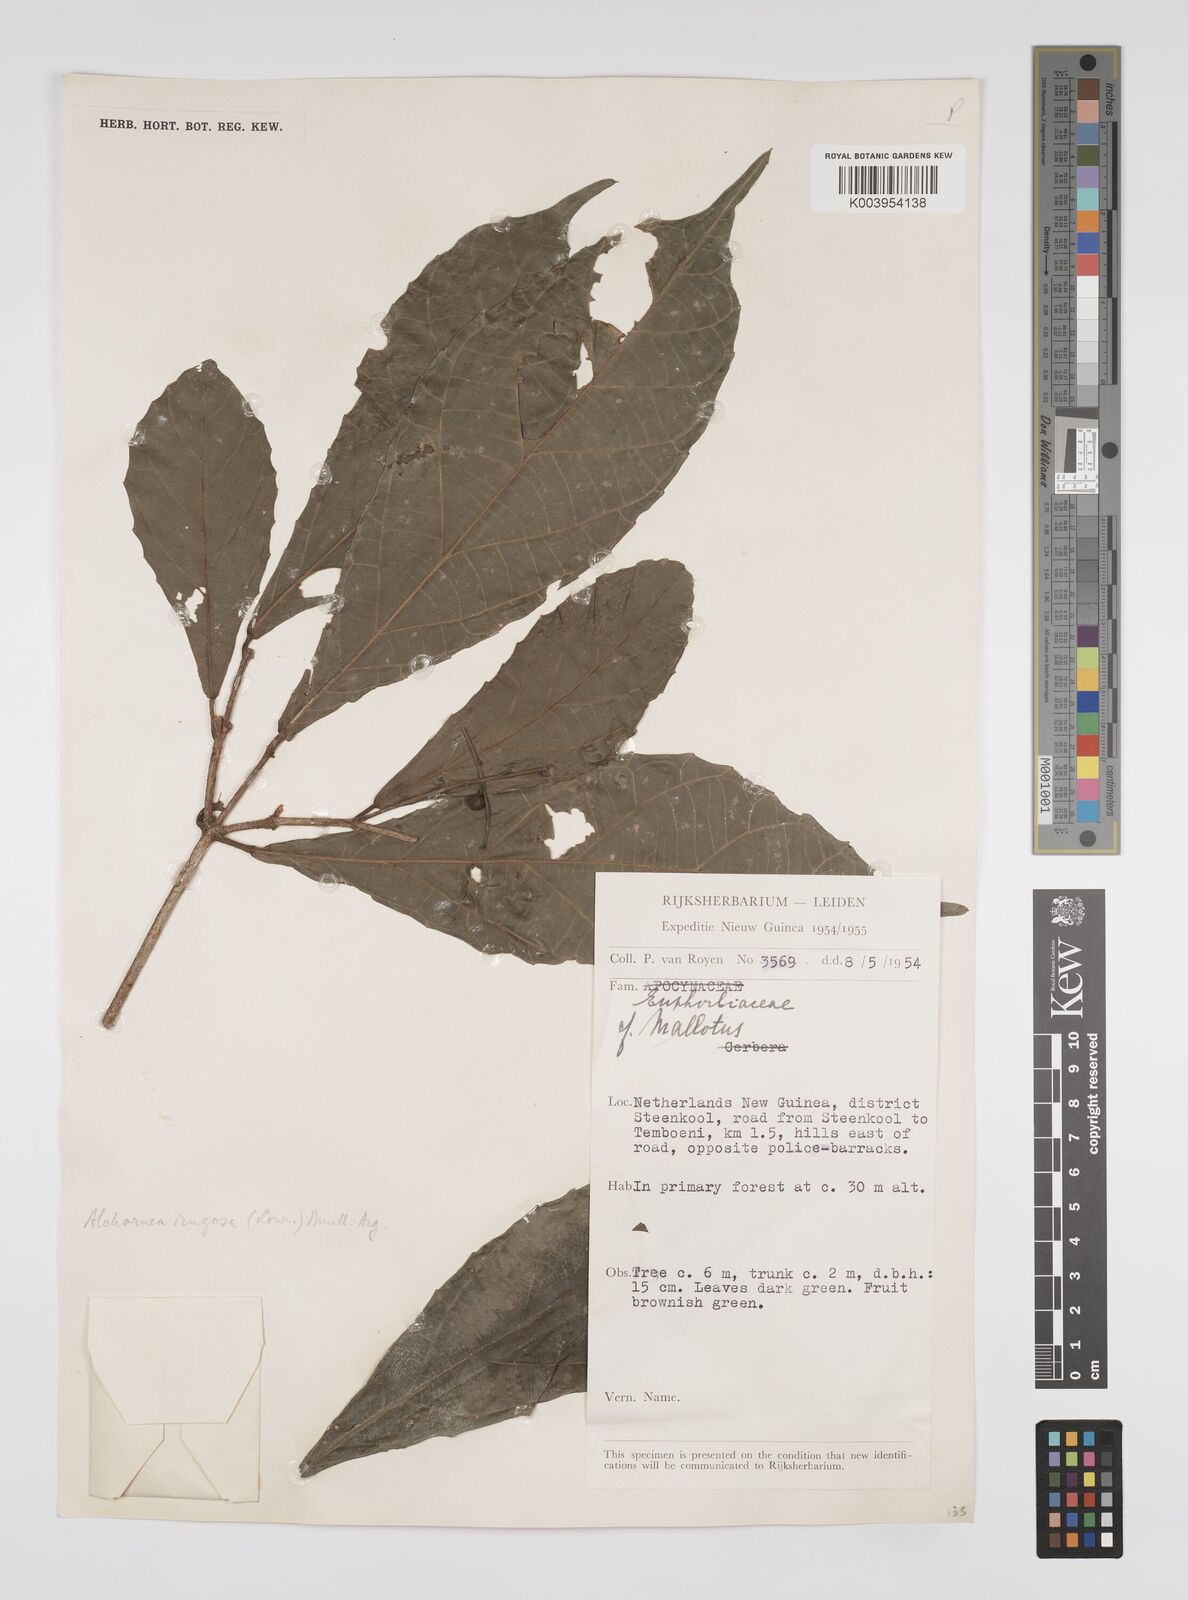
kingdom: Plantae
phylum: Tracheophyta
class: Magnoliopsida
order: Malpighiales
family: Euphorbiaceae
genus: Alchornea
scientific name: Alchornea rugosa
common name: Alchorntree
